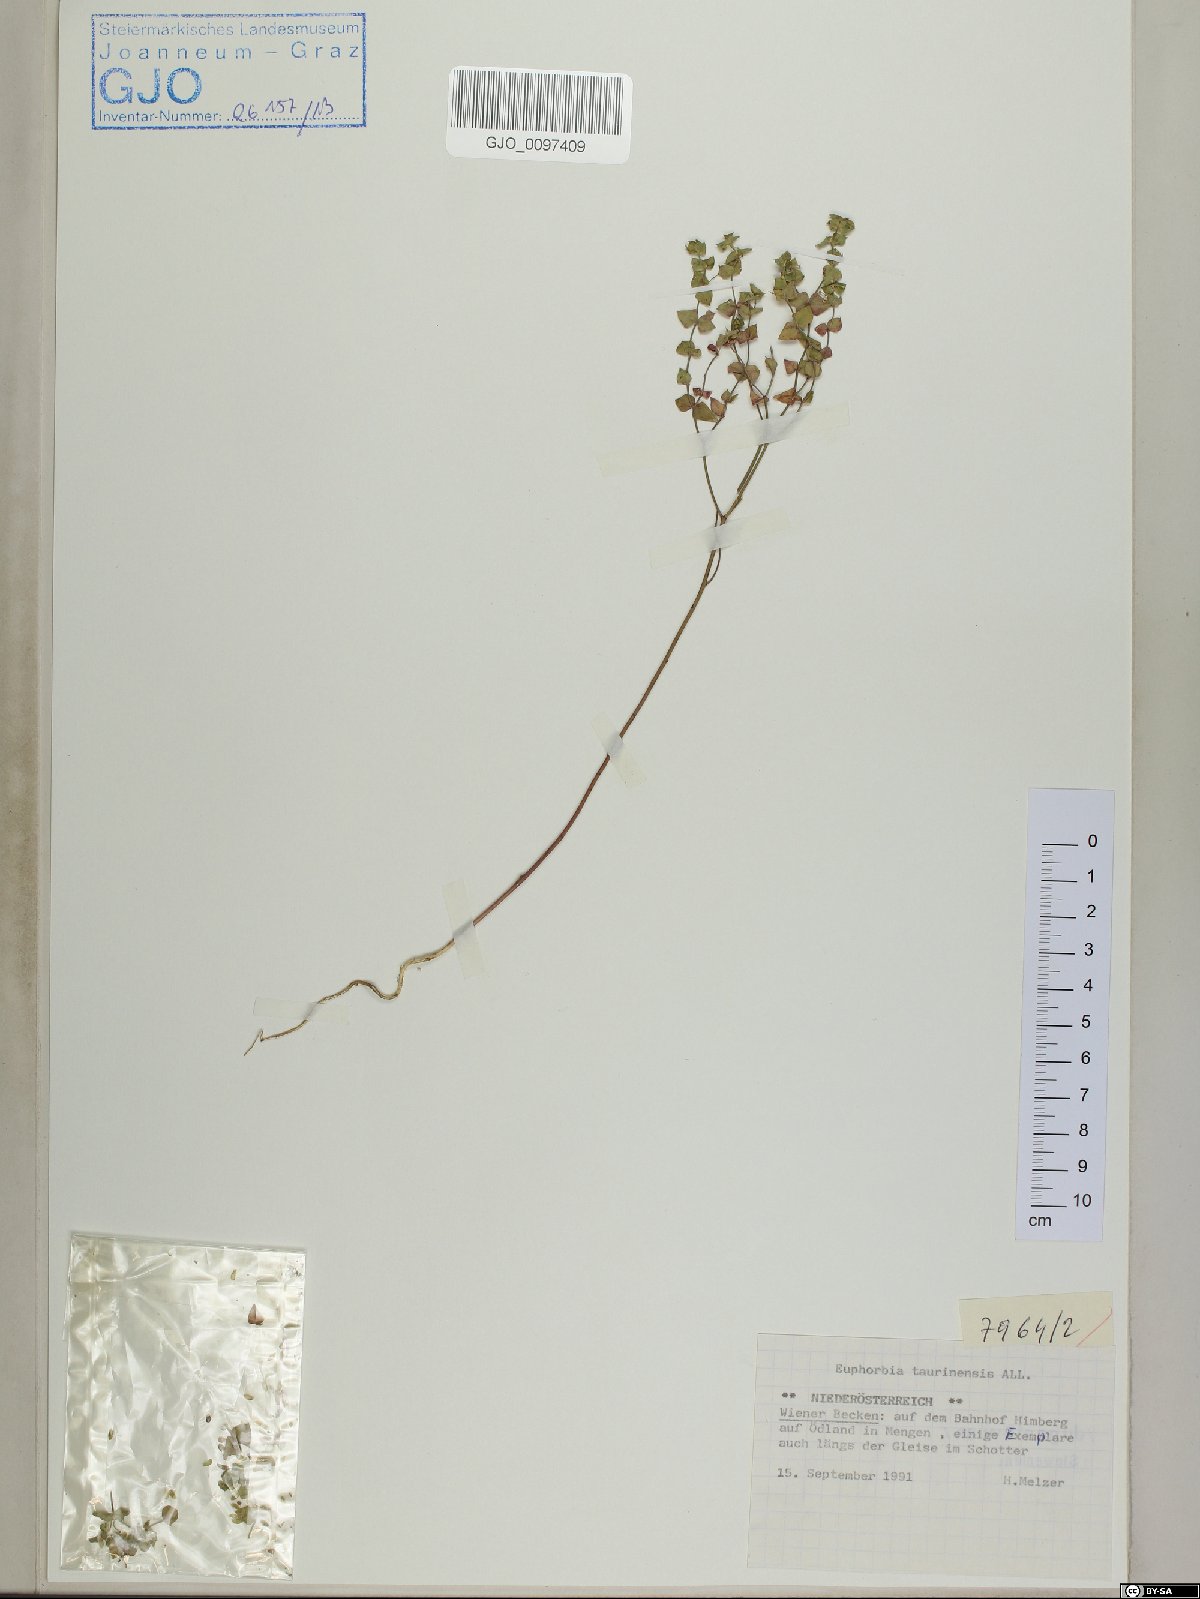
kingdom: Plantae
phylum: Tracheophyta
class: Magnoliopsida
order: Malpighiales
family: Euphorbiaceae
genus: Euphorbia
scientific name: Euphorbia taurinensis
